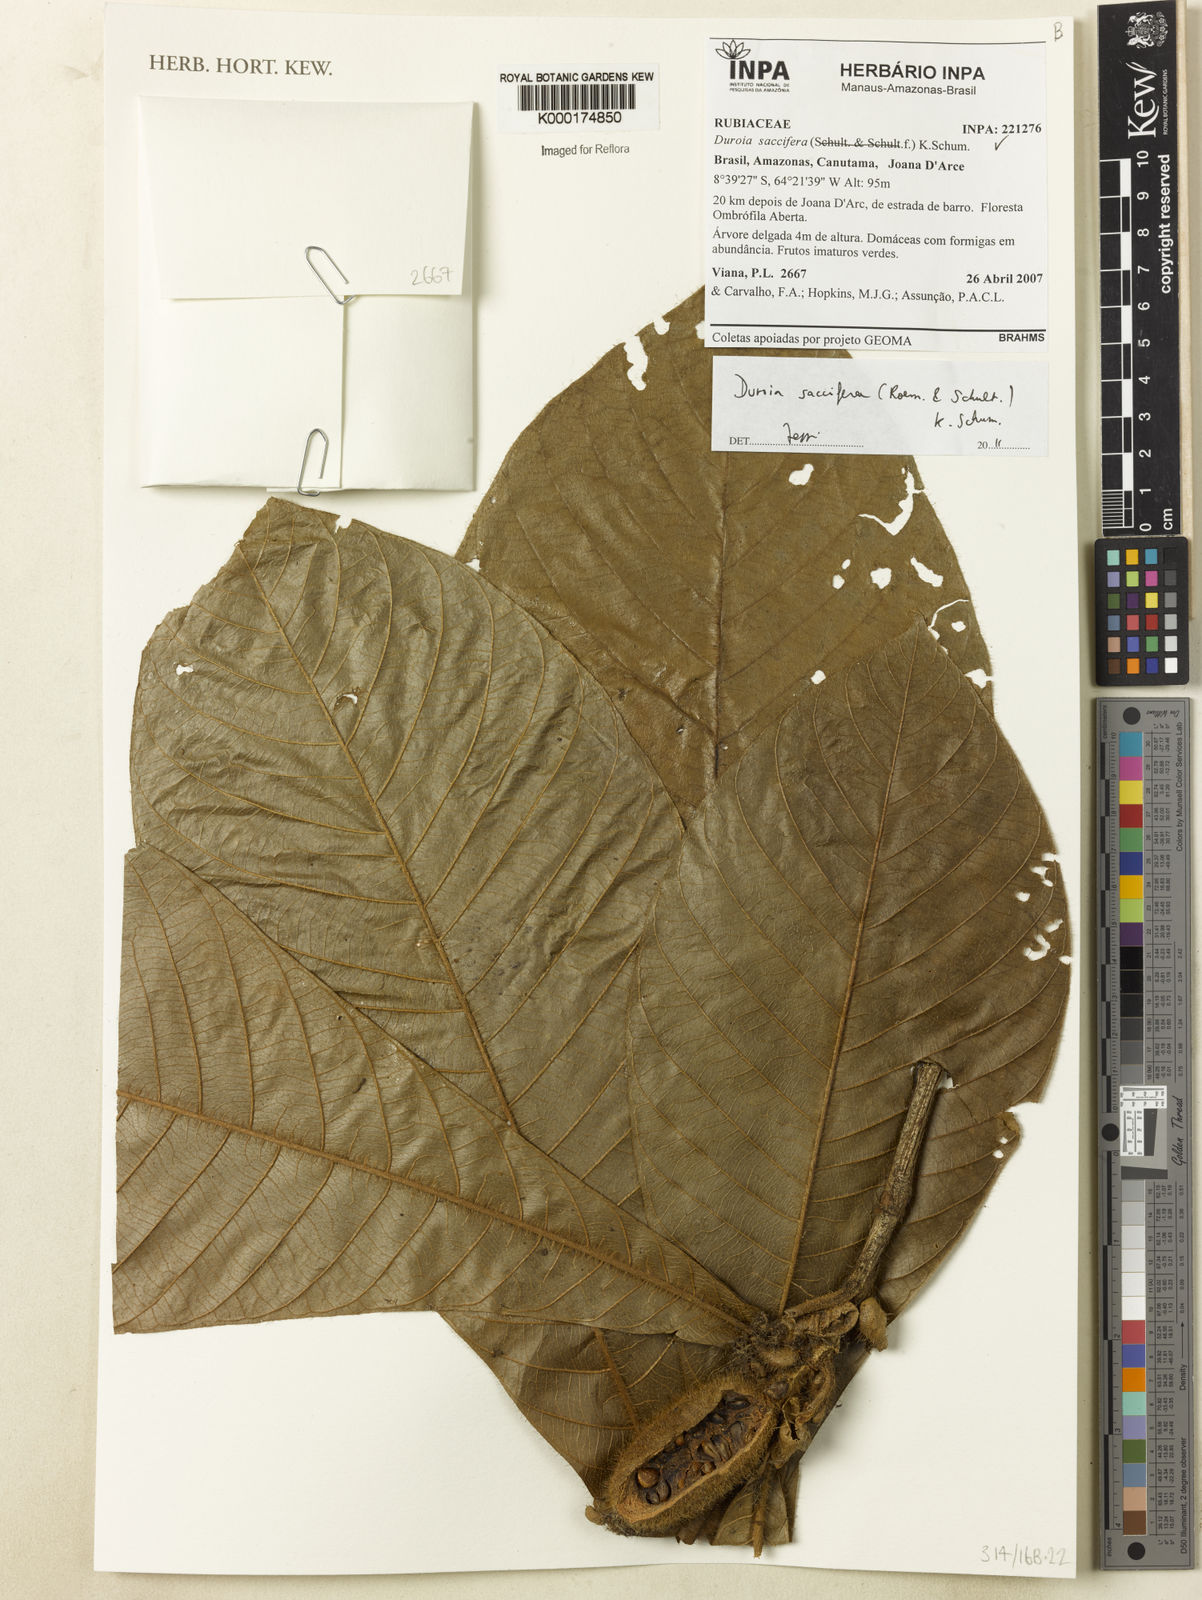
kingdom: Plantae
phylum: Tracheophyta
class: Magnoliopsida
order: Gentianales
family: Rubiaceae
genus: Duroia
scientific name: Duroia saccifera
